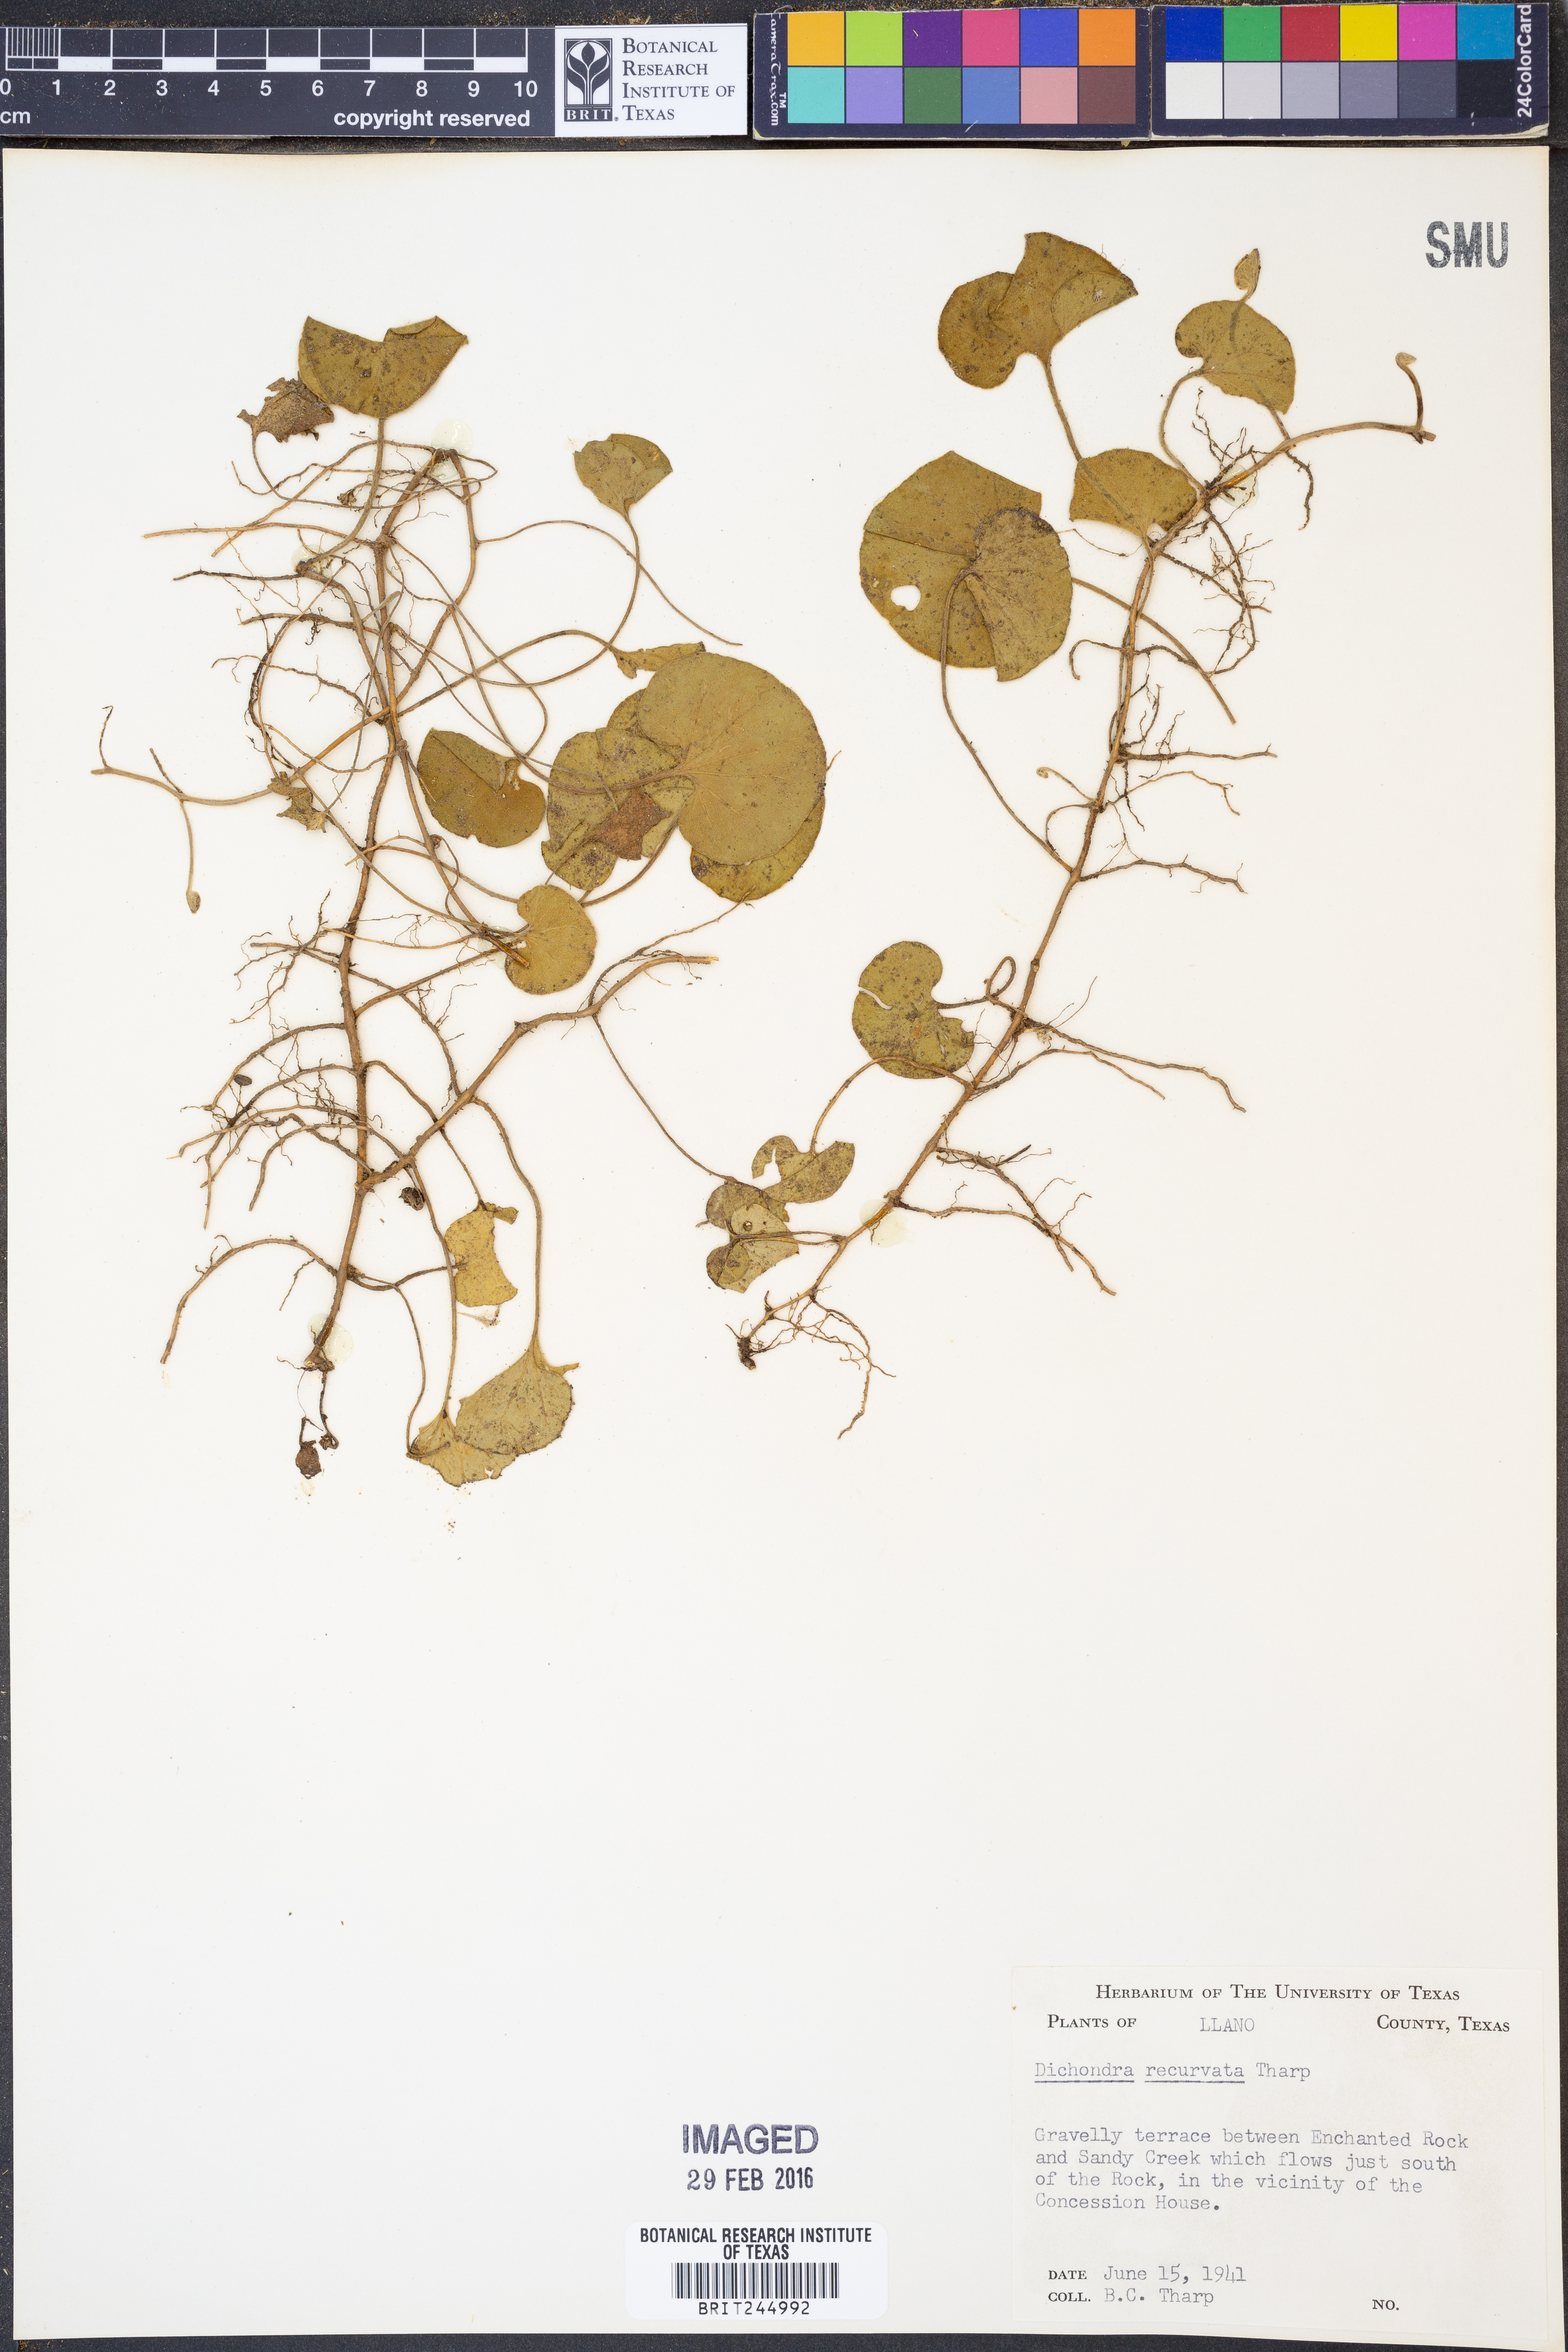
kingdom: Plantae
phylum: Tracheophyta
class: Magnoliopsida
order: Solanales
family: Convolvulaceae
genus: Dichondra
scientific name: Dichondra recurvata
